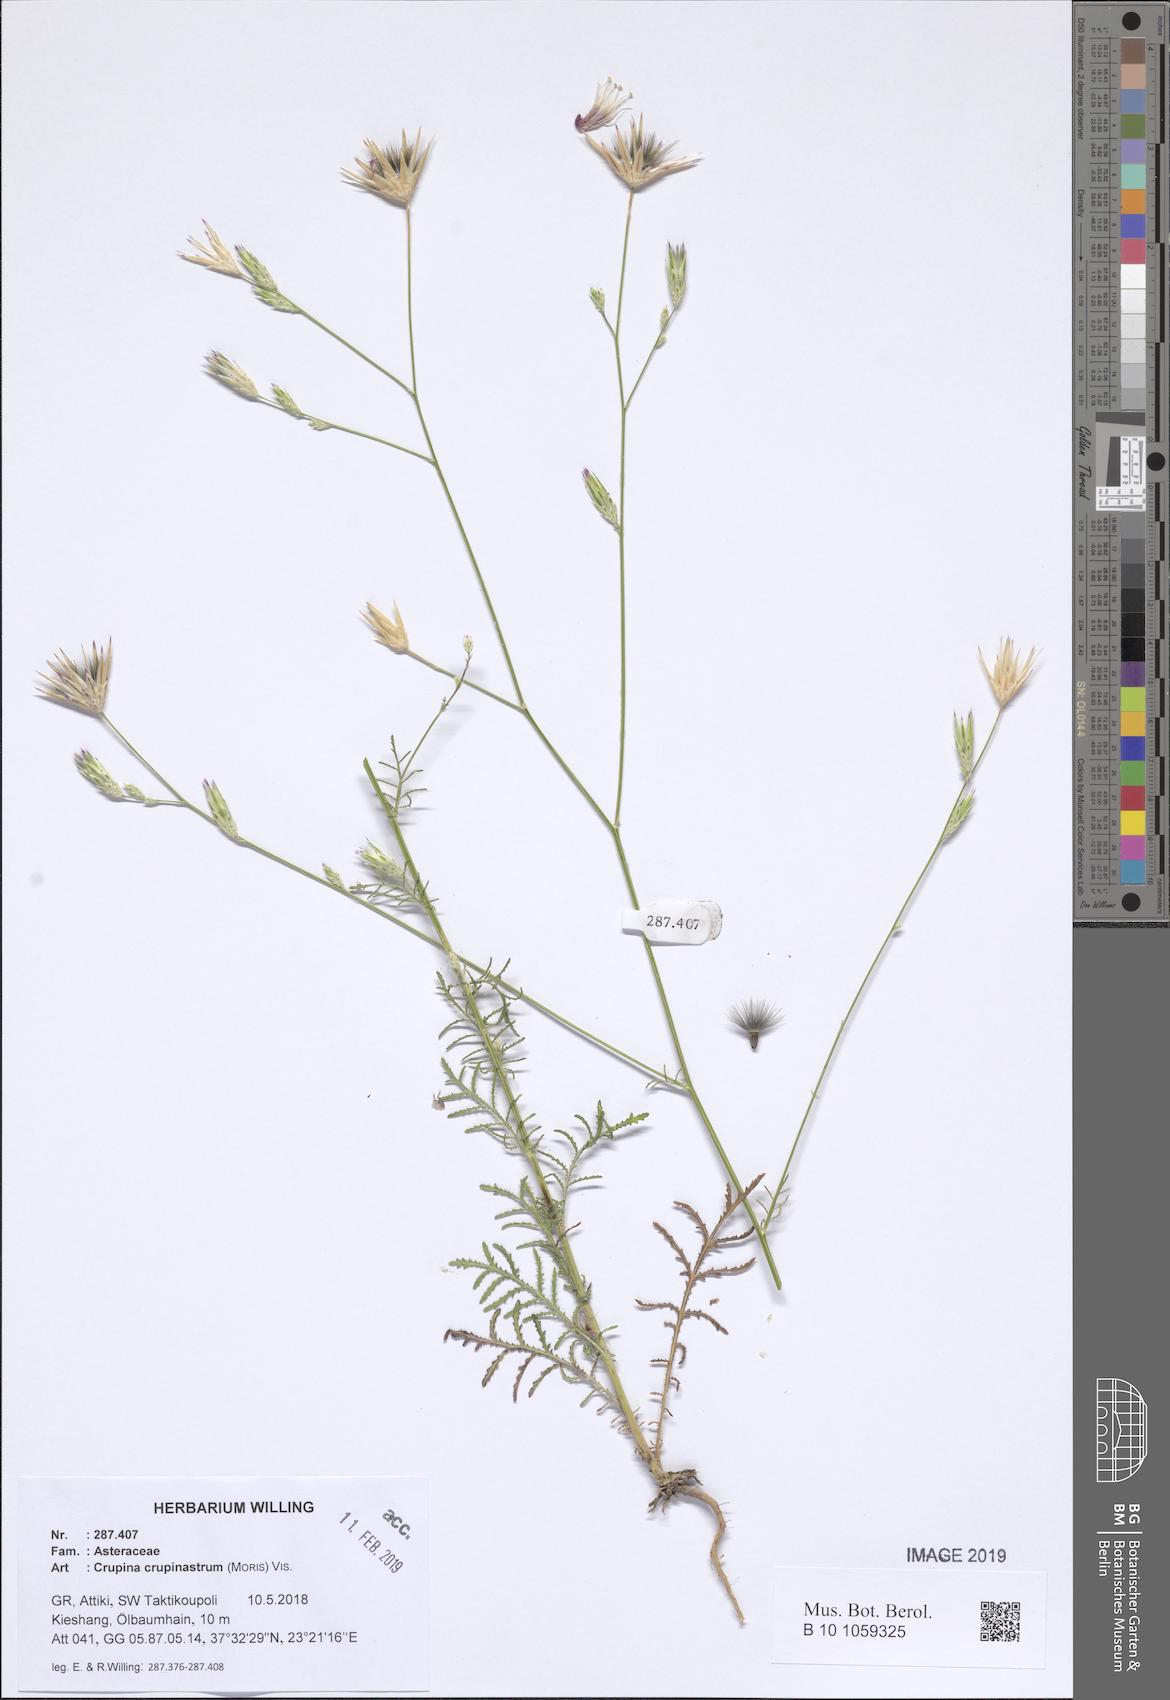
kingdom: Plantae
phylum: Tracheophyta
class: Magnoliopsida
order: Asterales
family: Asteraceae
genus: Crupina
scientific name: Crupina crupinastrum
